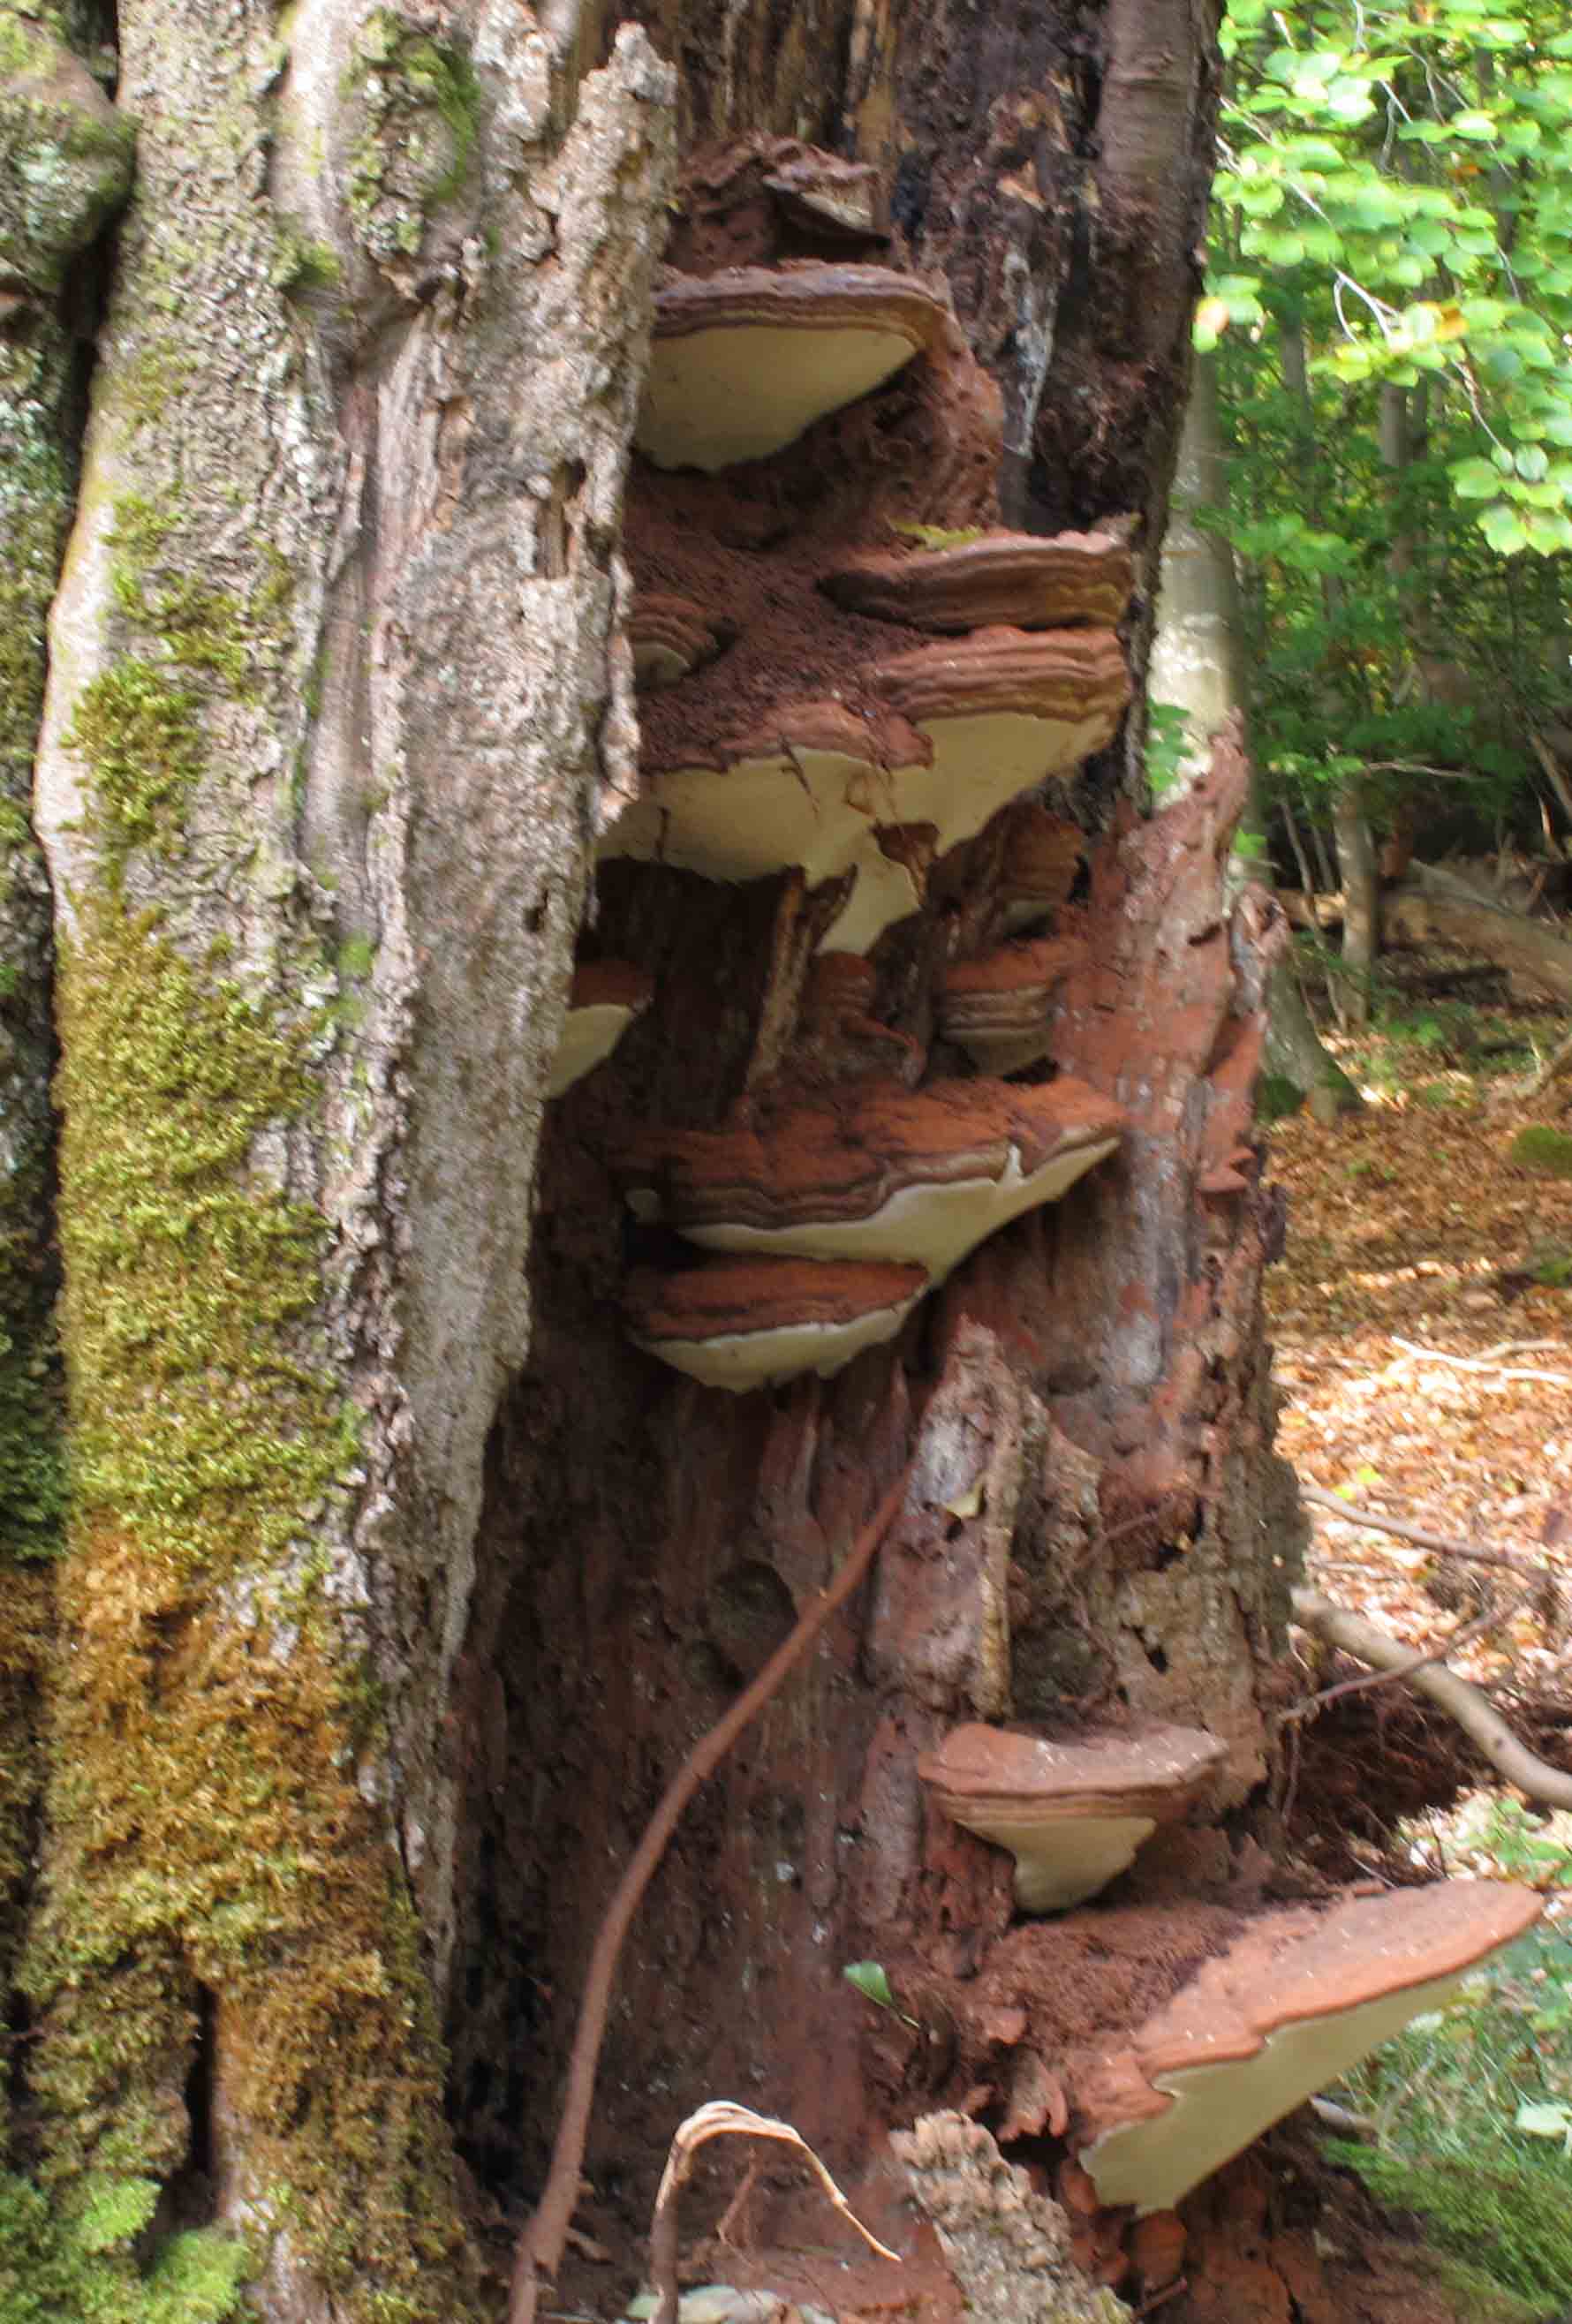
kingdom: Fungi
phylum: Basidiomycota
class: Agaricomycetes
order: Polyporales
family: Polyporaceae
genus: Ganoderma
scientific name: Ganoderma pfeifferi
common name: kobberrød lakporesvamp
